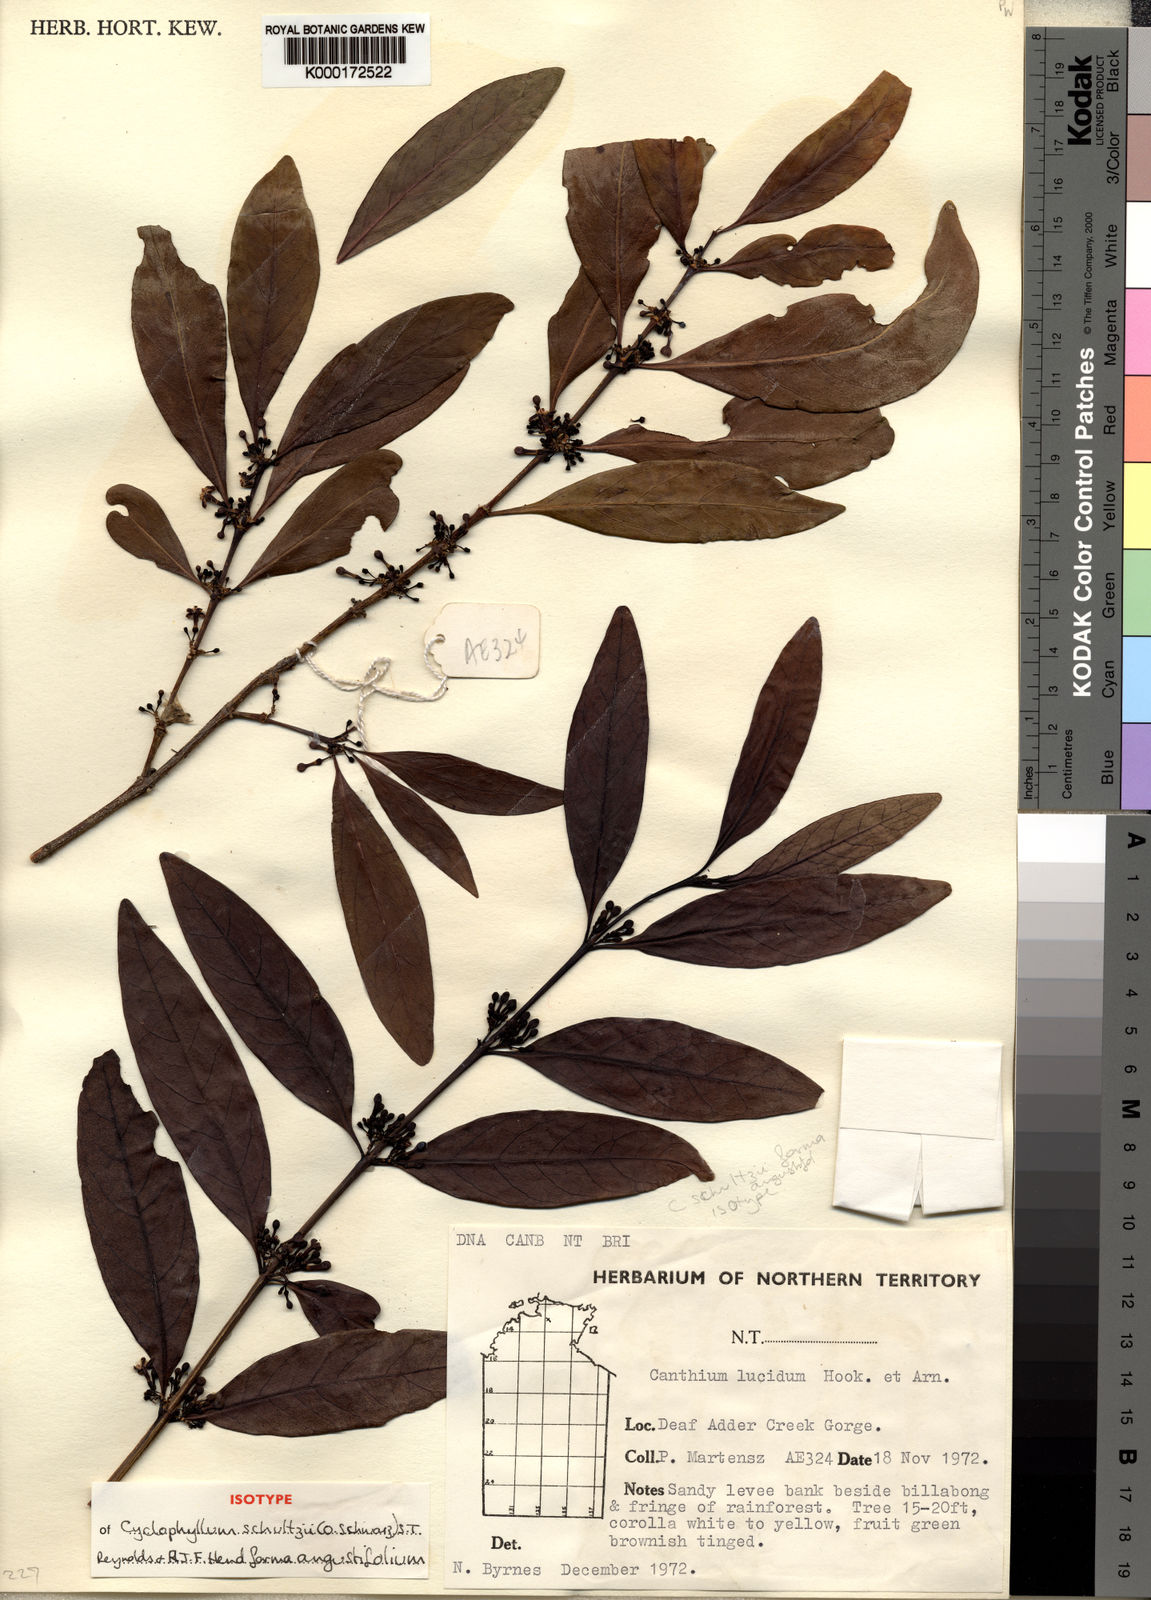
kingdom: Plantae
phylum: Tracheophyta
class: Magnoliopsida
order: Gentianales
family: Rubiaceae
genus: Cyclophyllum
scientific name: Cyclophyllum schultzii
